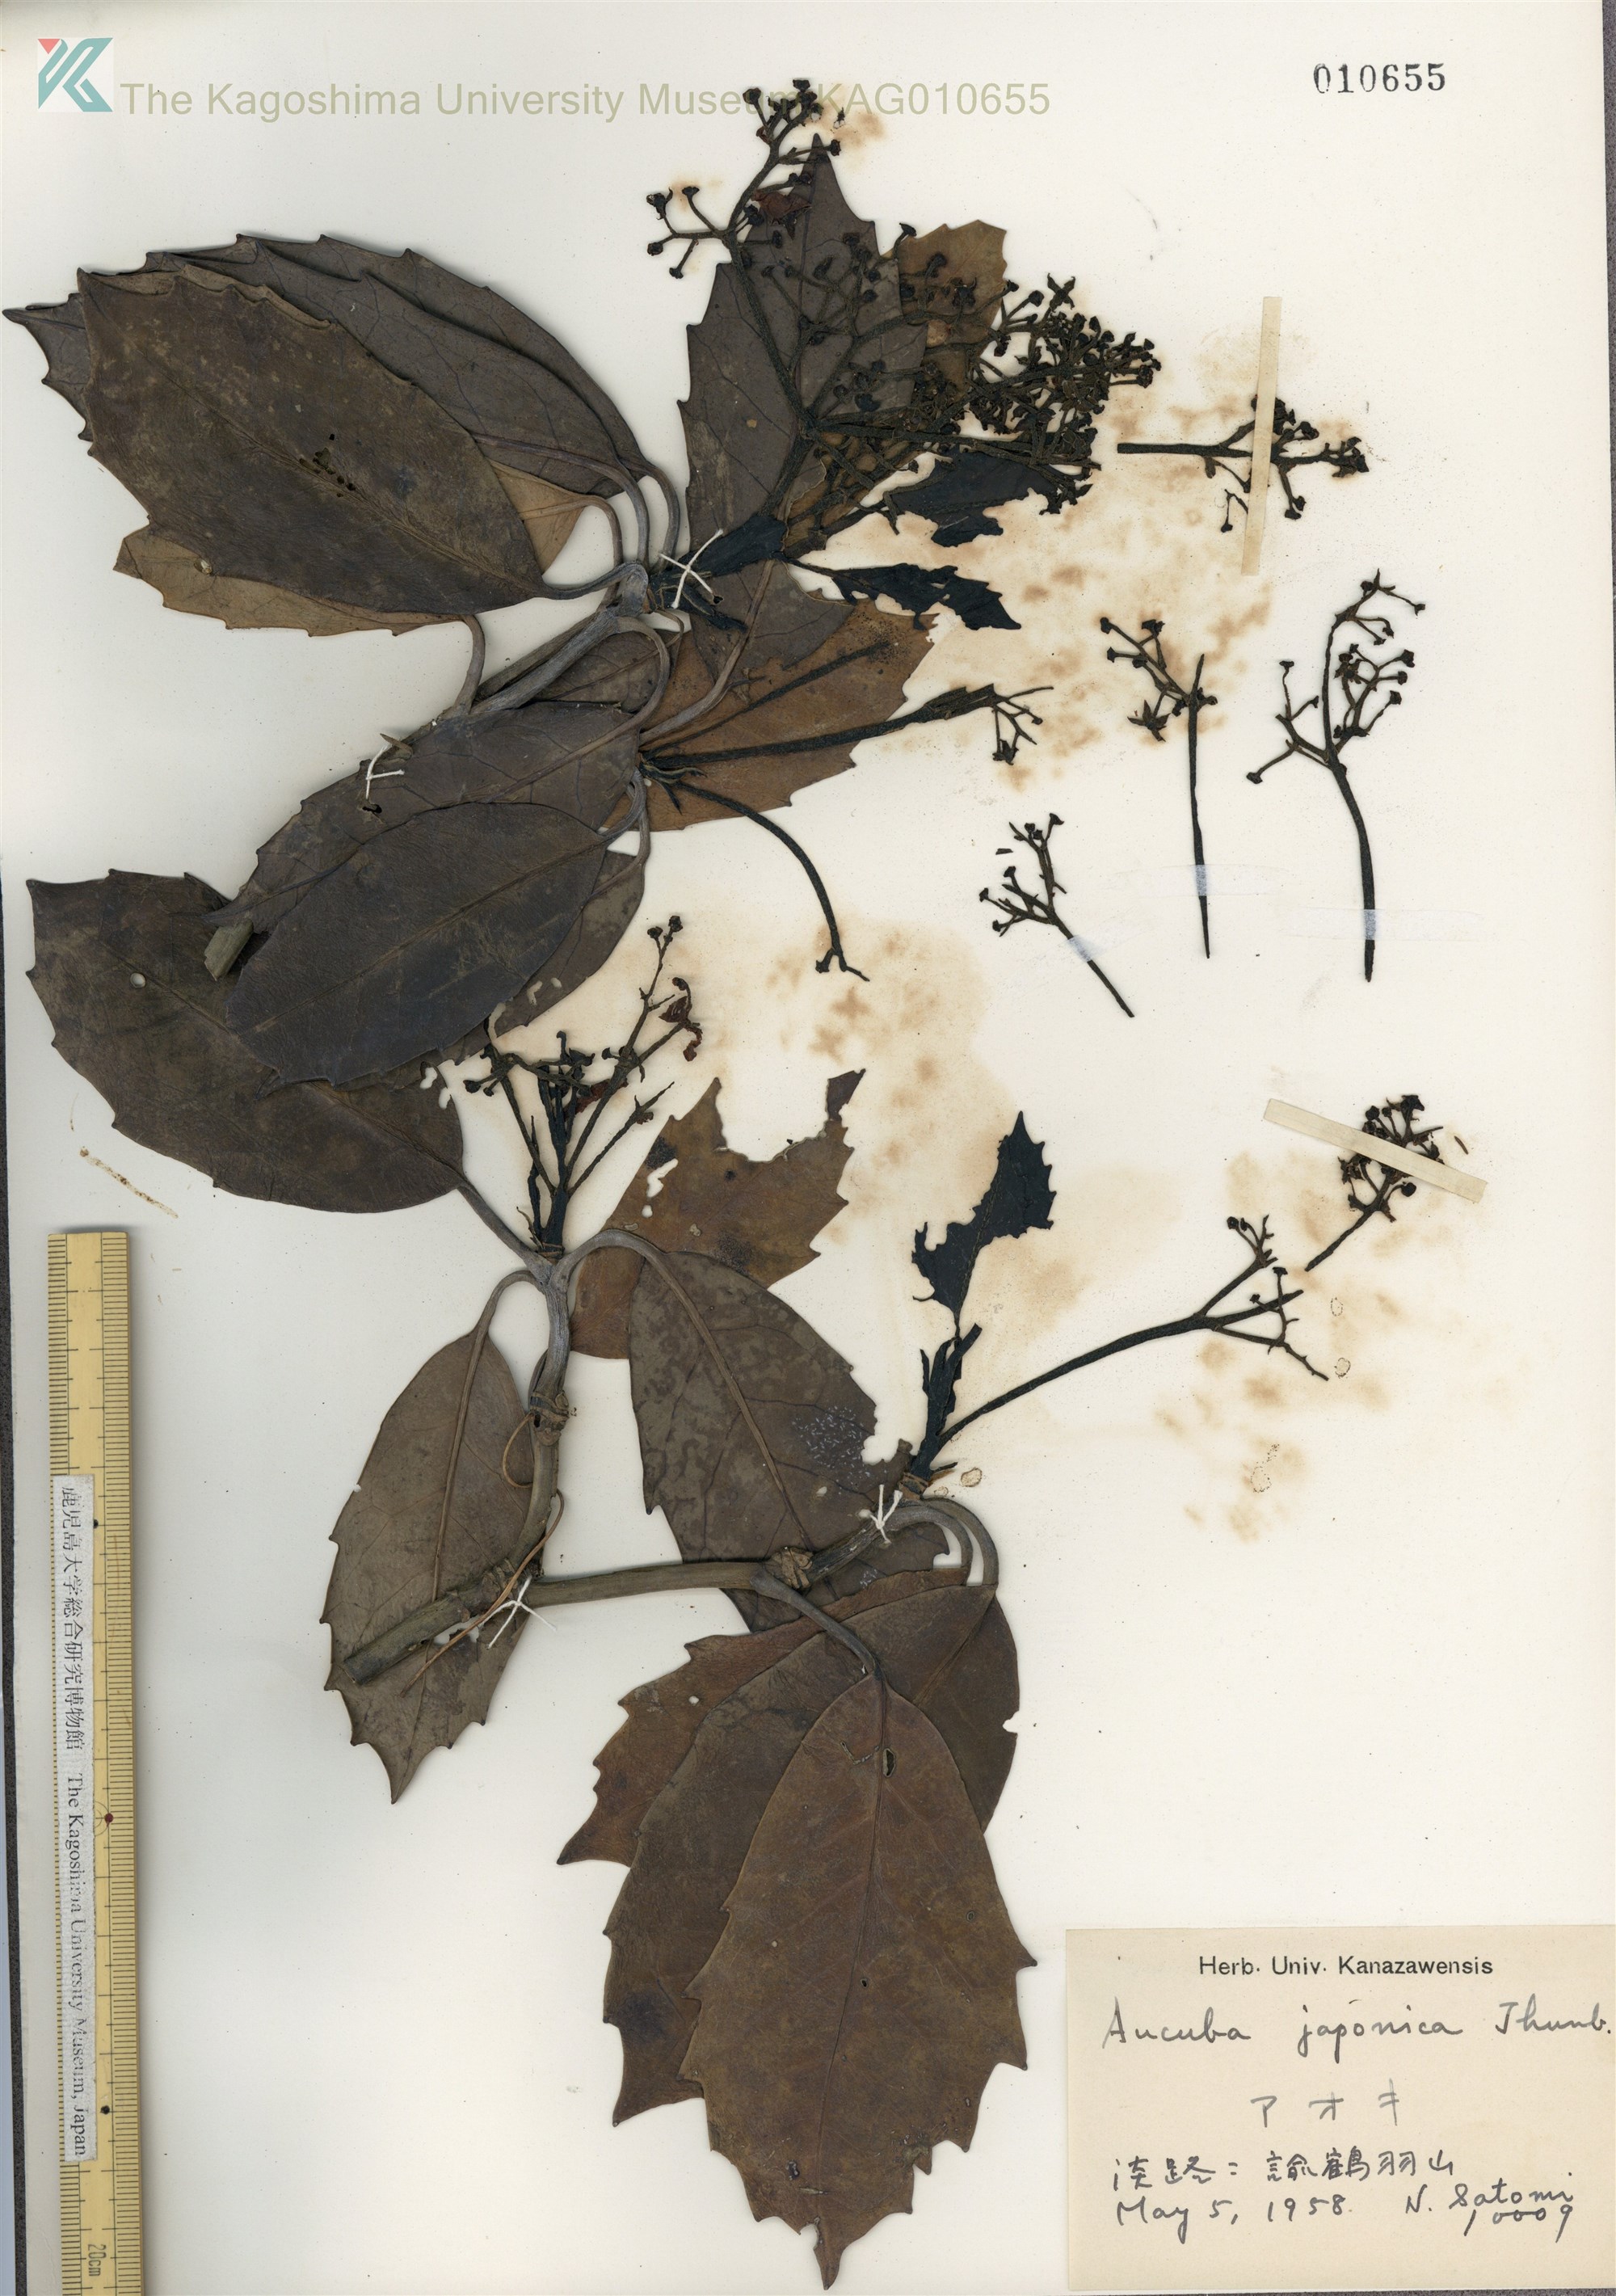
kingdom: Plantae
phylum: Tracheophyta
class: Magnoliopsida
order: Garryales
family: Garryaceae
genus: Aucuba
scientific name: Aucuba japonica
